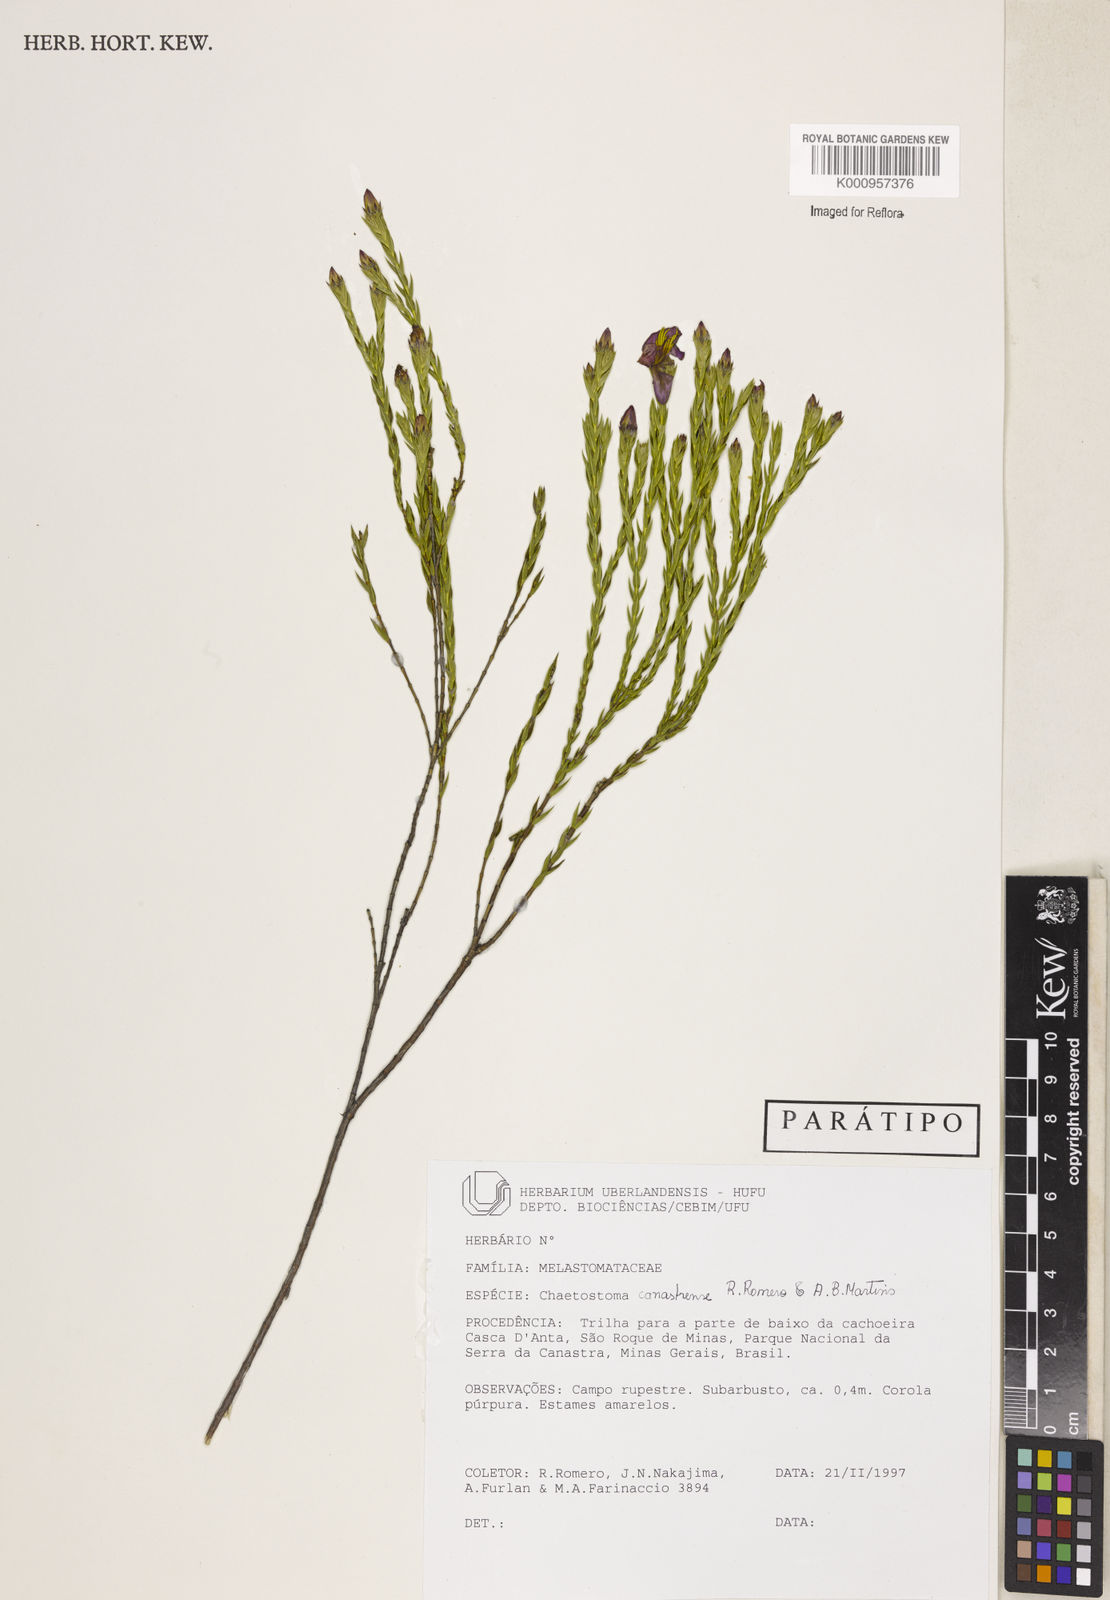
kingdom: Plantae
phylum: Tracheophyta
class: Magnoliopsida
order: Myrtales
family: Melastomataceae
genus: Microlicia
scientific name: Microlicia fastigiata
